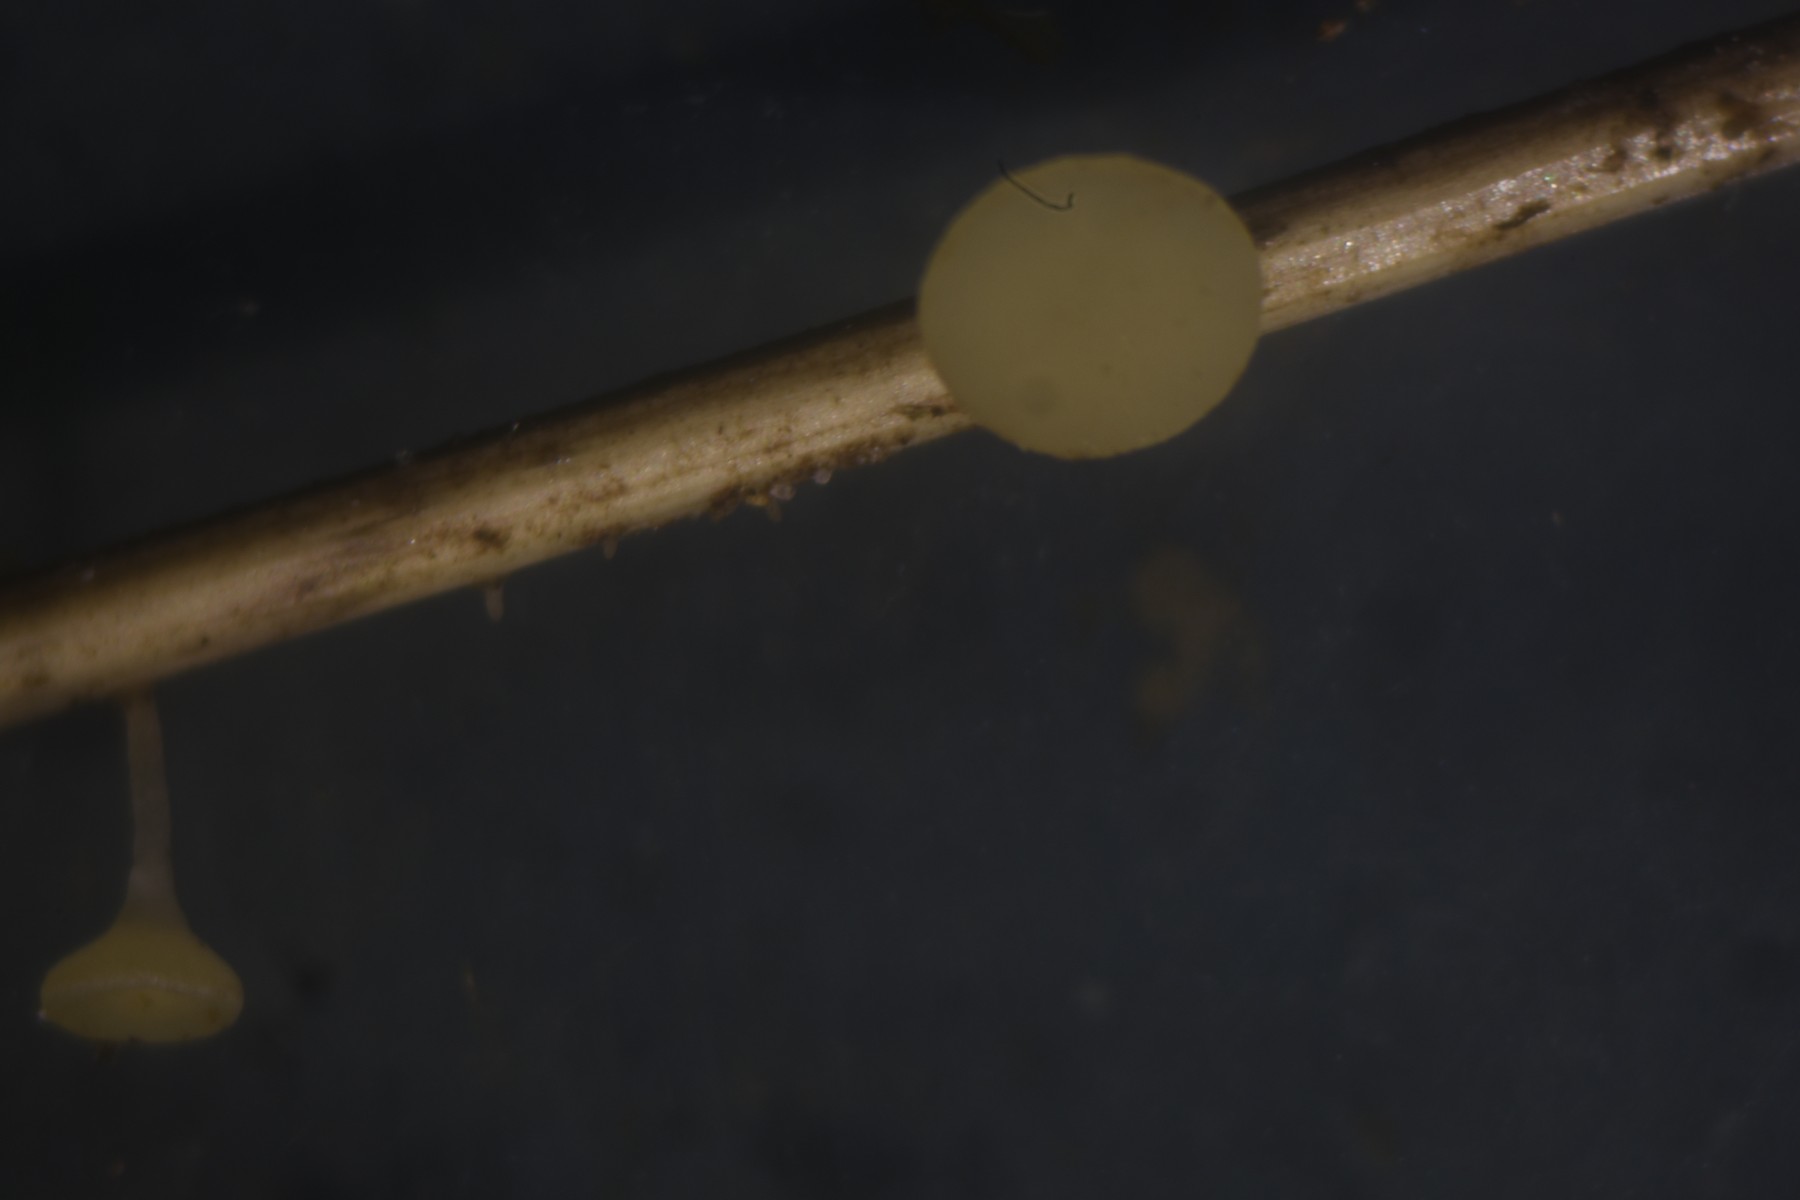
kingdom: Fungi
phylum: Ascomycota
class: Leotiomycetes
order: Helotiales
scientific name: Helotiales
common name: stilkskiveordenen
